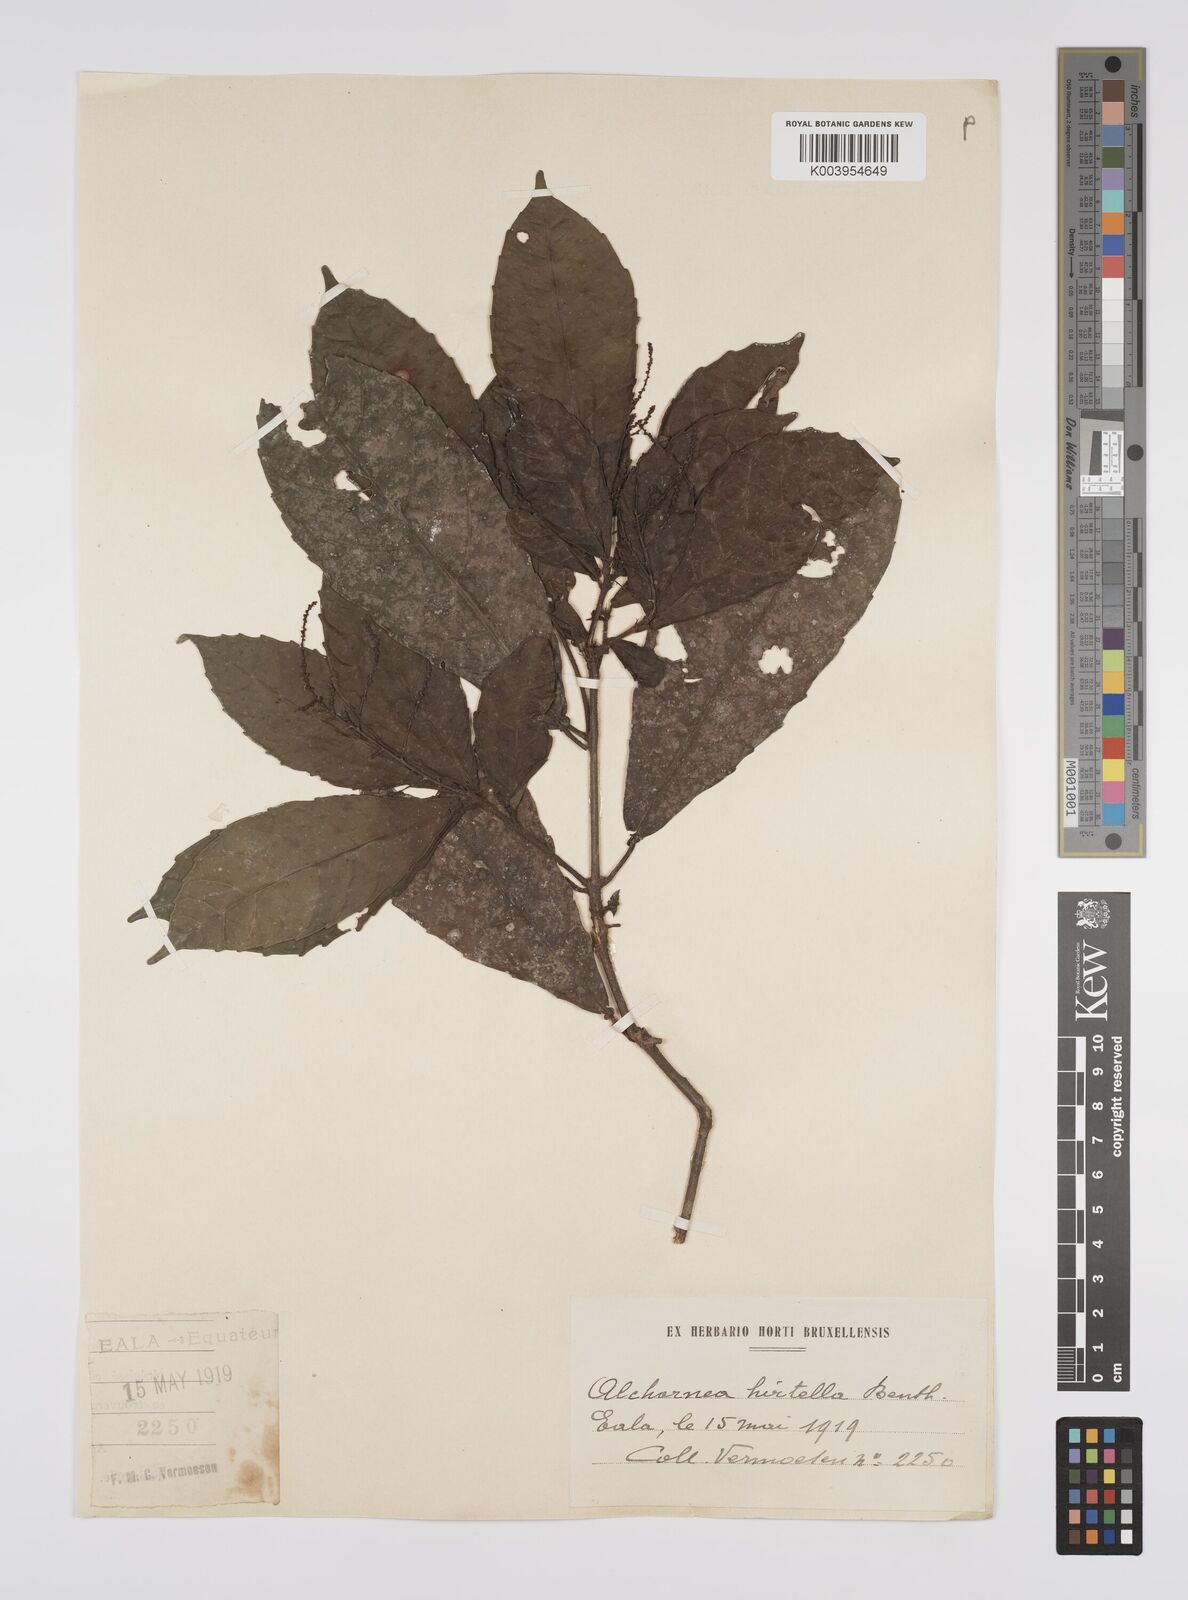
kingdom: Plantae
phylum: Tracheophyta
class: Magnoliopsida
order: Malpighiales
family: Euphorbiaceae
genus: Alchornea
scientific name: Alchornea hirtella
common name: Forest bead-string
